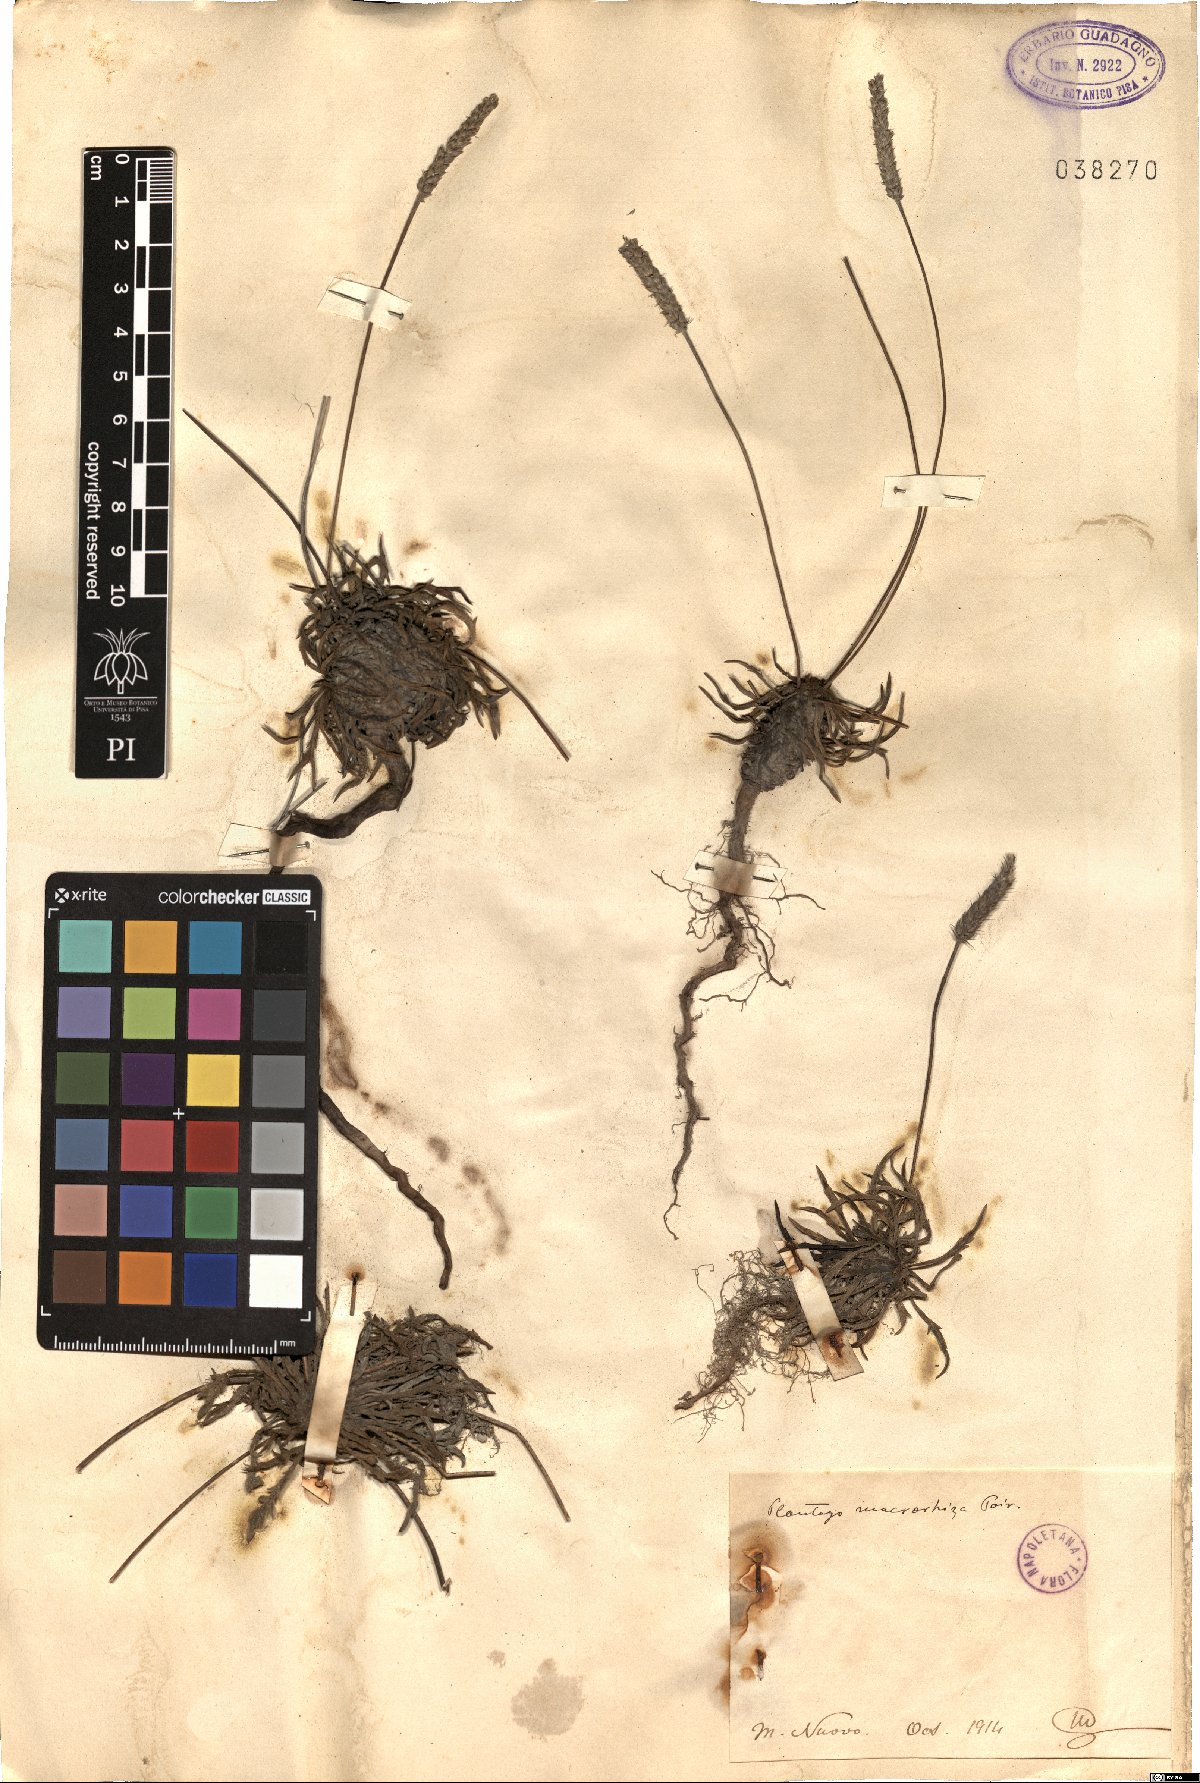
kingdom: Plantae
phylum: Tracheophyta
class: Magnoliopsida
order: Lamiales
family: Plantaginaceae
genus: Plantago
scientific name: Plantago macrorhiza
